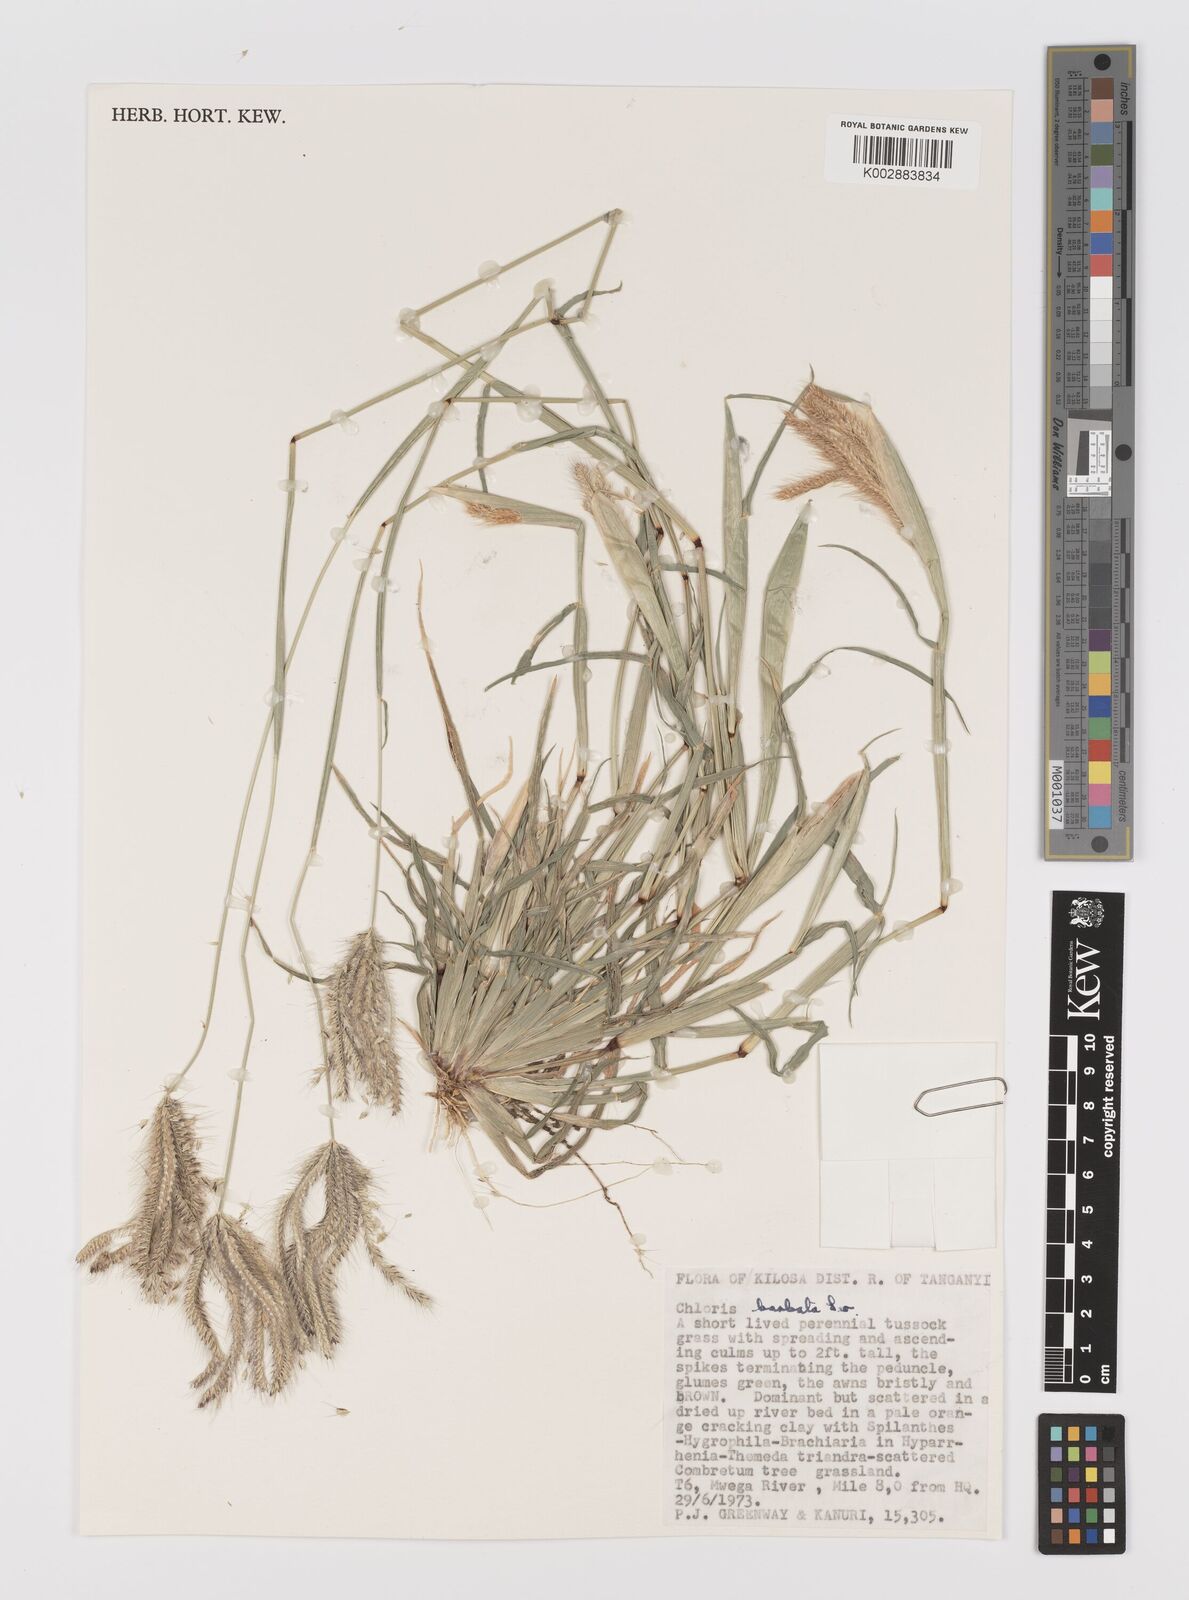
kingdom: Plantae
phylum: Tracheophyta
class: Liliopsida
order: Poales
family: Poaceae
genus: Chloris
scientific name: Chloris barbata
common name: Swollen fingergrass
